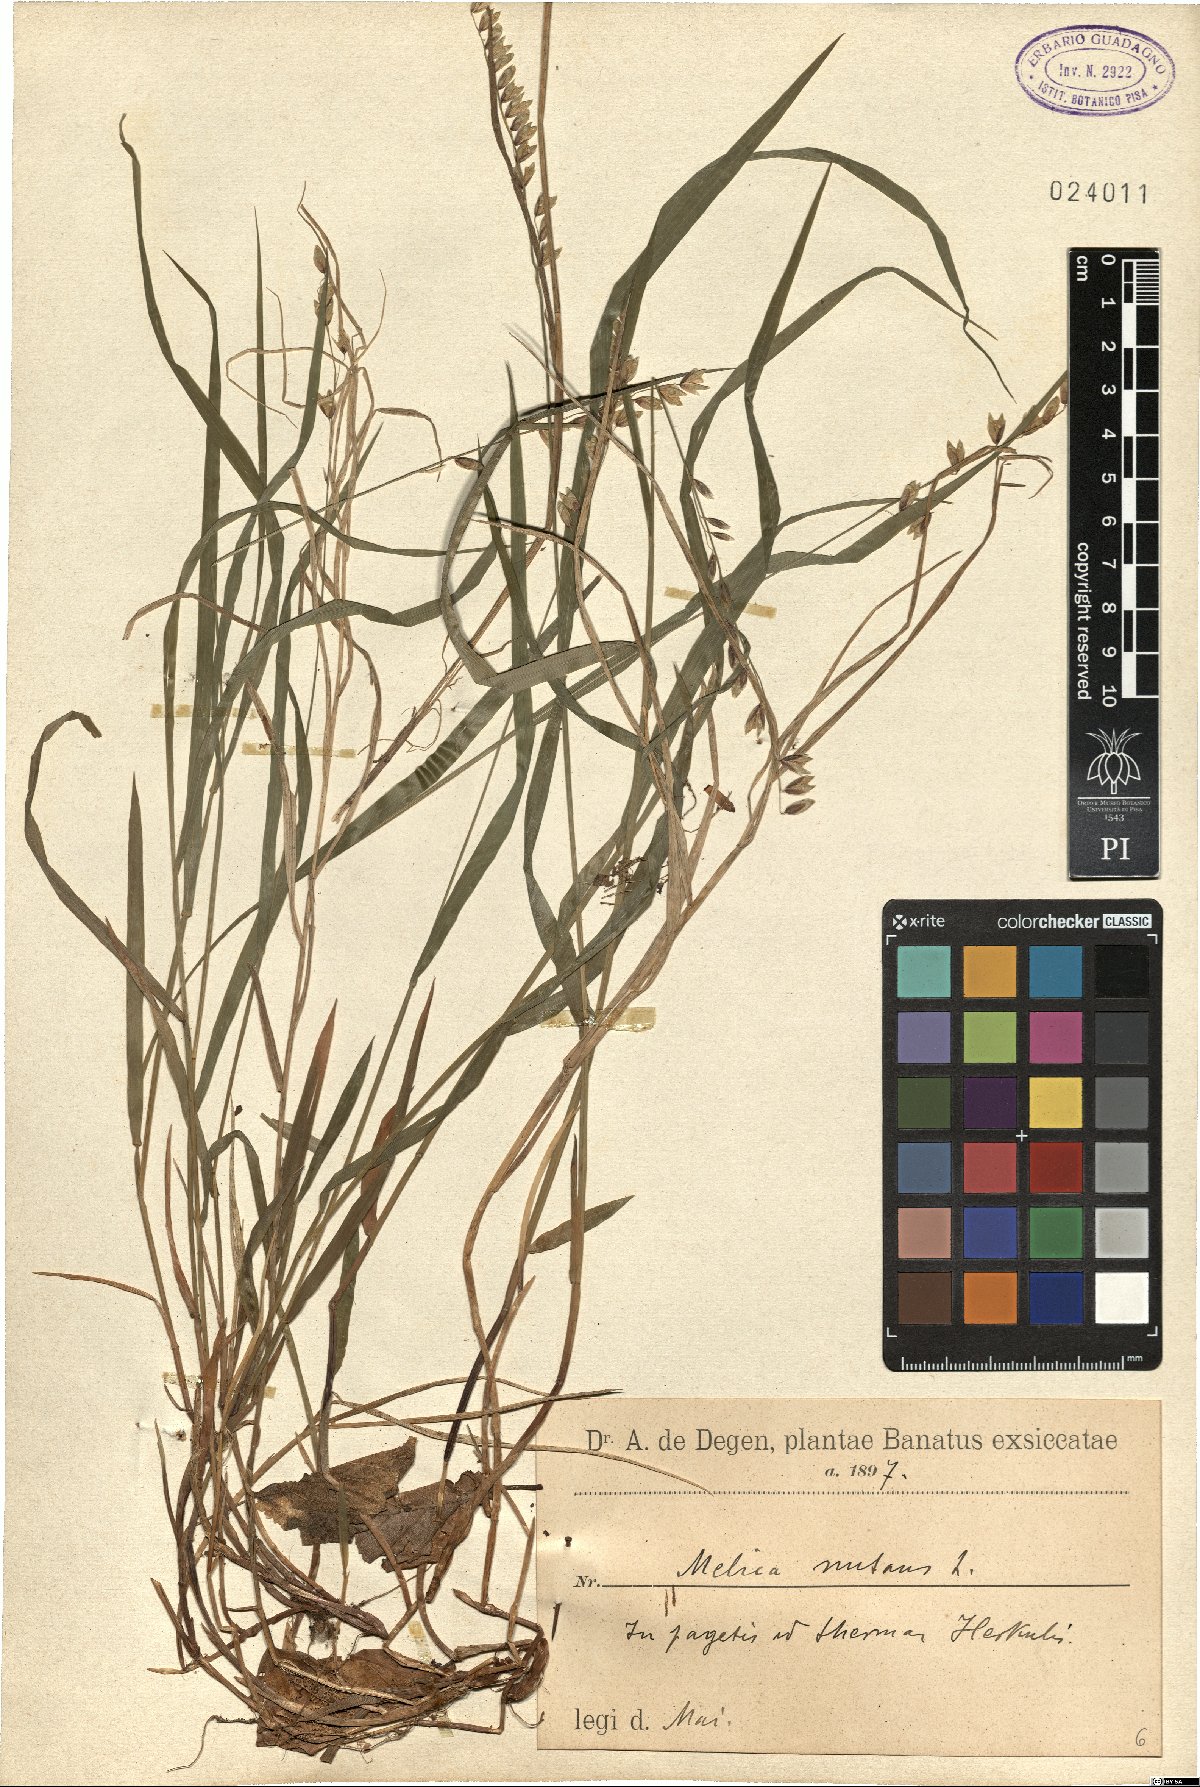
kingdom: Plantae
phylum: Tracheophyta
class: Liliopsida
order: Poales
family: Poaceae
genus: Melica
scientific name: Melica nutans
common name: Mountain melick
